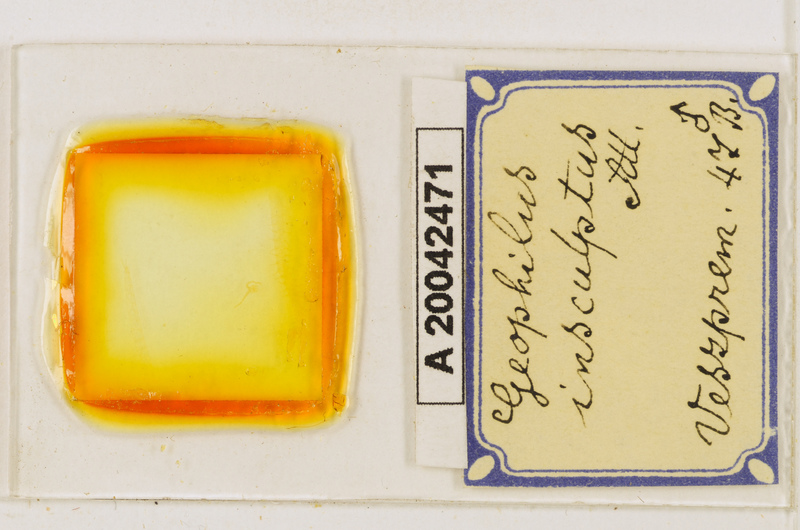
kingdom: Animalia
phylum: Arthropoda
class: Chilopoda
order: Geophilomorpha
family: Geophilidae
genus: Geophilus
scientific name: Geophilus insculptus
